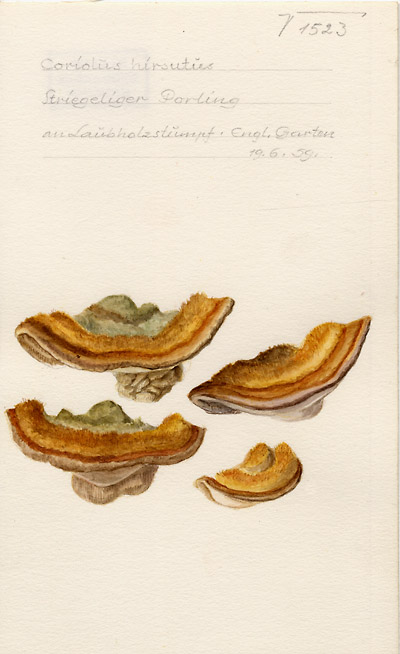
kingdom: Fungi
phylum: Basidiomycota
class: Agaricomycetes
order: Polyporales
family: Polyporaceae
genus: Trametes
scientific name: Trametes hirsuta
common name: Hairy bracket
